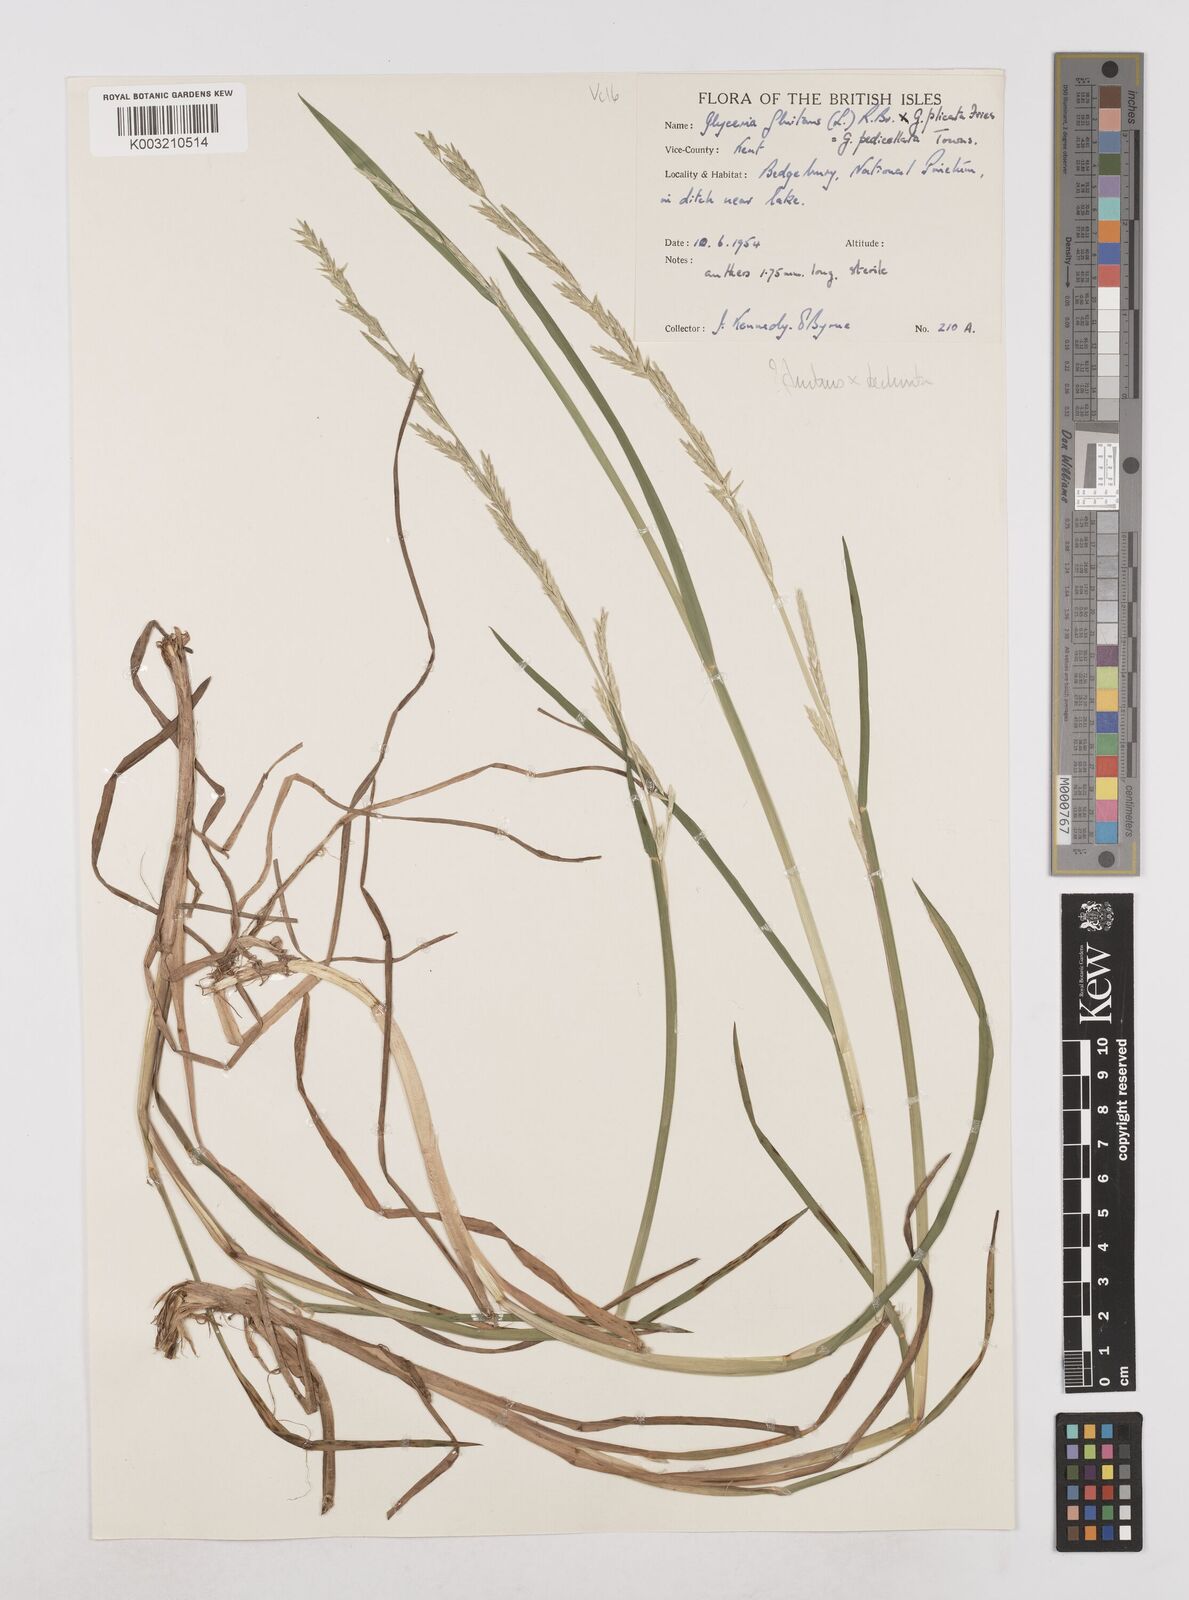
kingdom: Plantae
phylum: Tracheophyta
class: Liliopsida
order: Poales
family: Poaceae
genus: Glyceria
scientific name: Glyceria declinata
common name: Small sweet-grass
